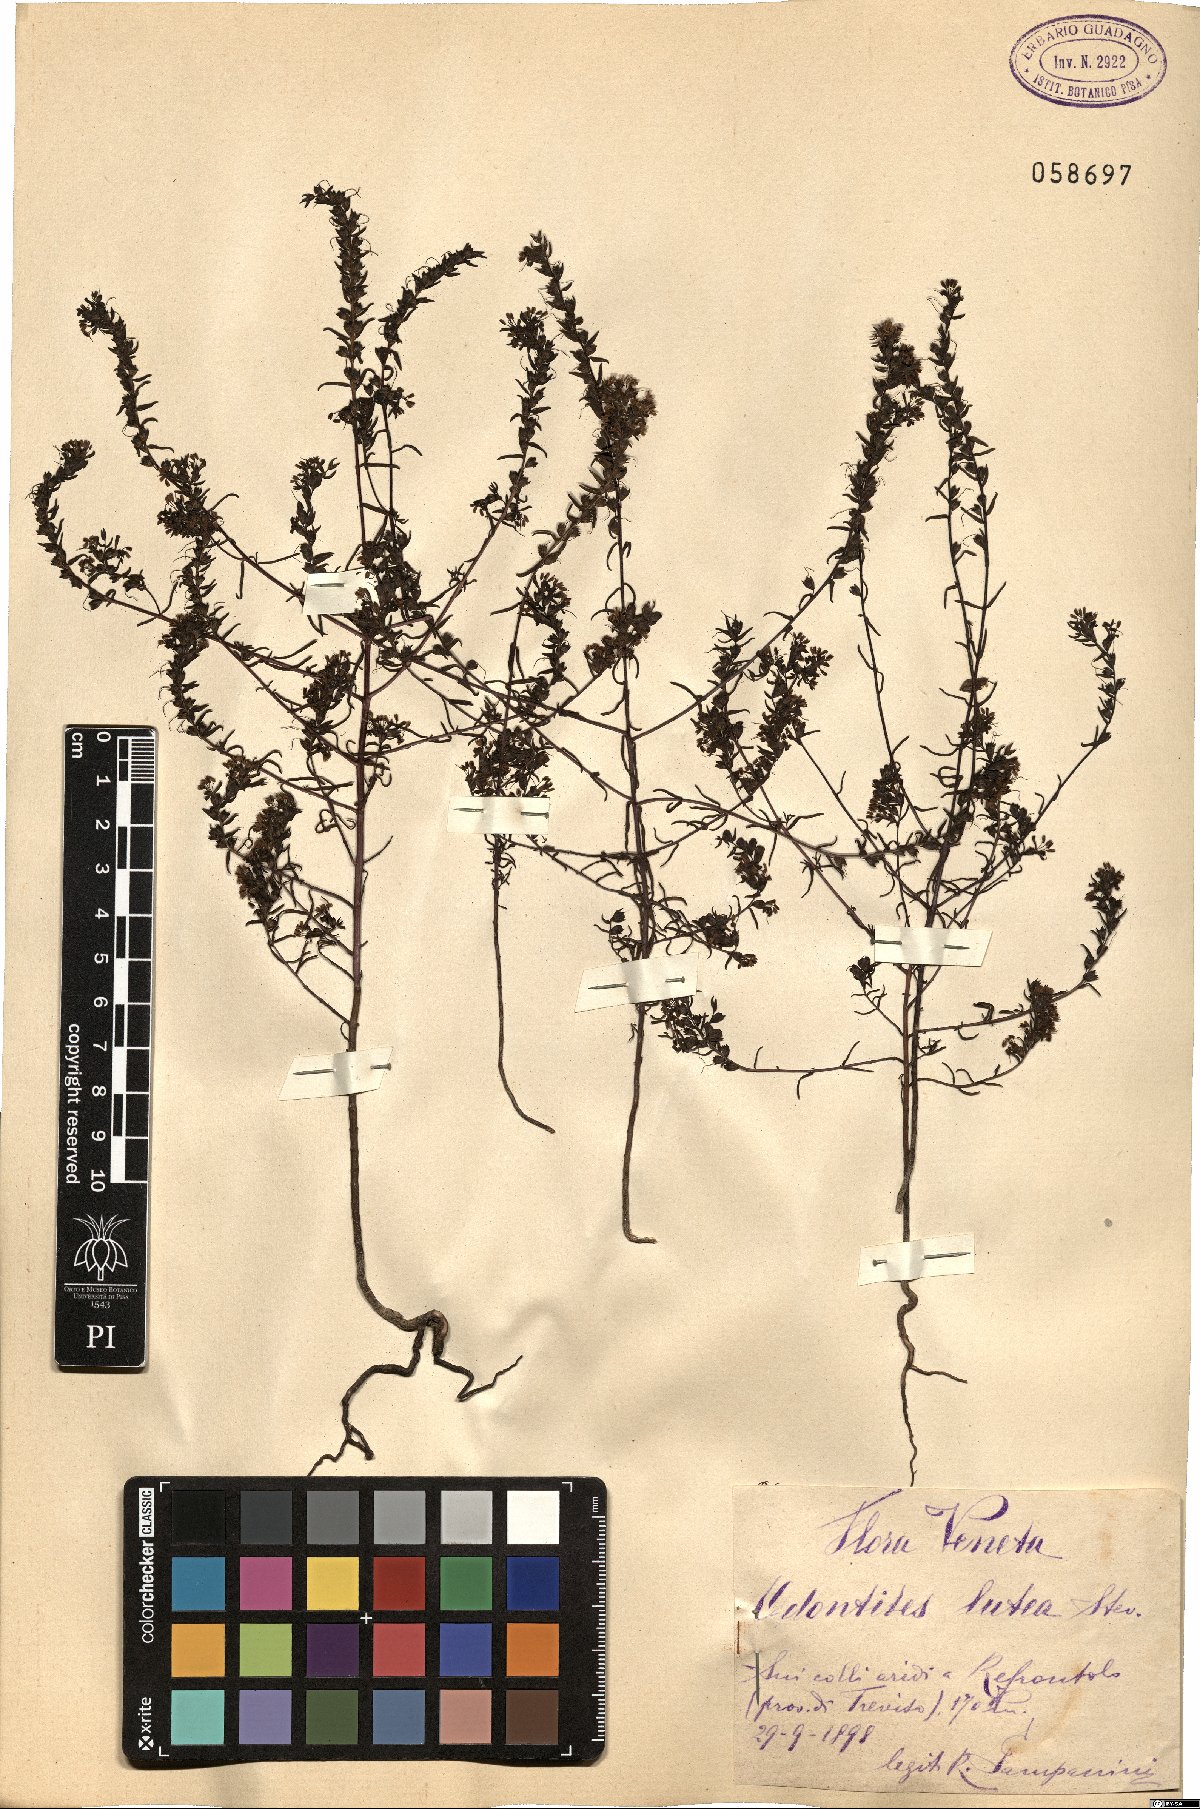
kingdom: Plantae
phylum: Tracheophyta
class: Magnoliopsida
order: Lamiales
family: Orobanchaceae
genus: Odontites
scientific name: Odontites luteus
